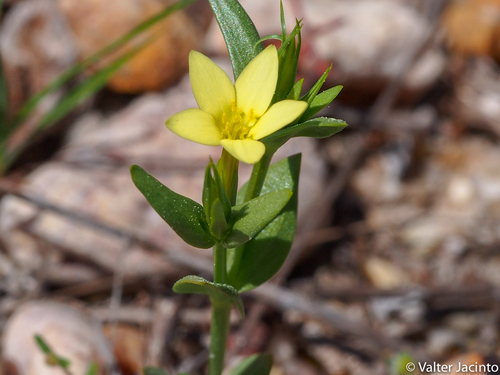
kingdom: Plantae
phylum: Tracheophyta
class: Magnoliopsida
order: Gentianales
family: Gentianaceae
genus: Centaurium
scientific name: Centaurium maritimum
